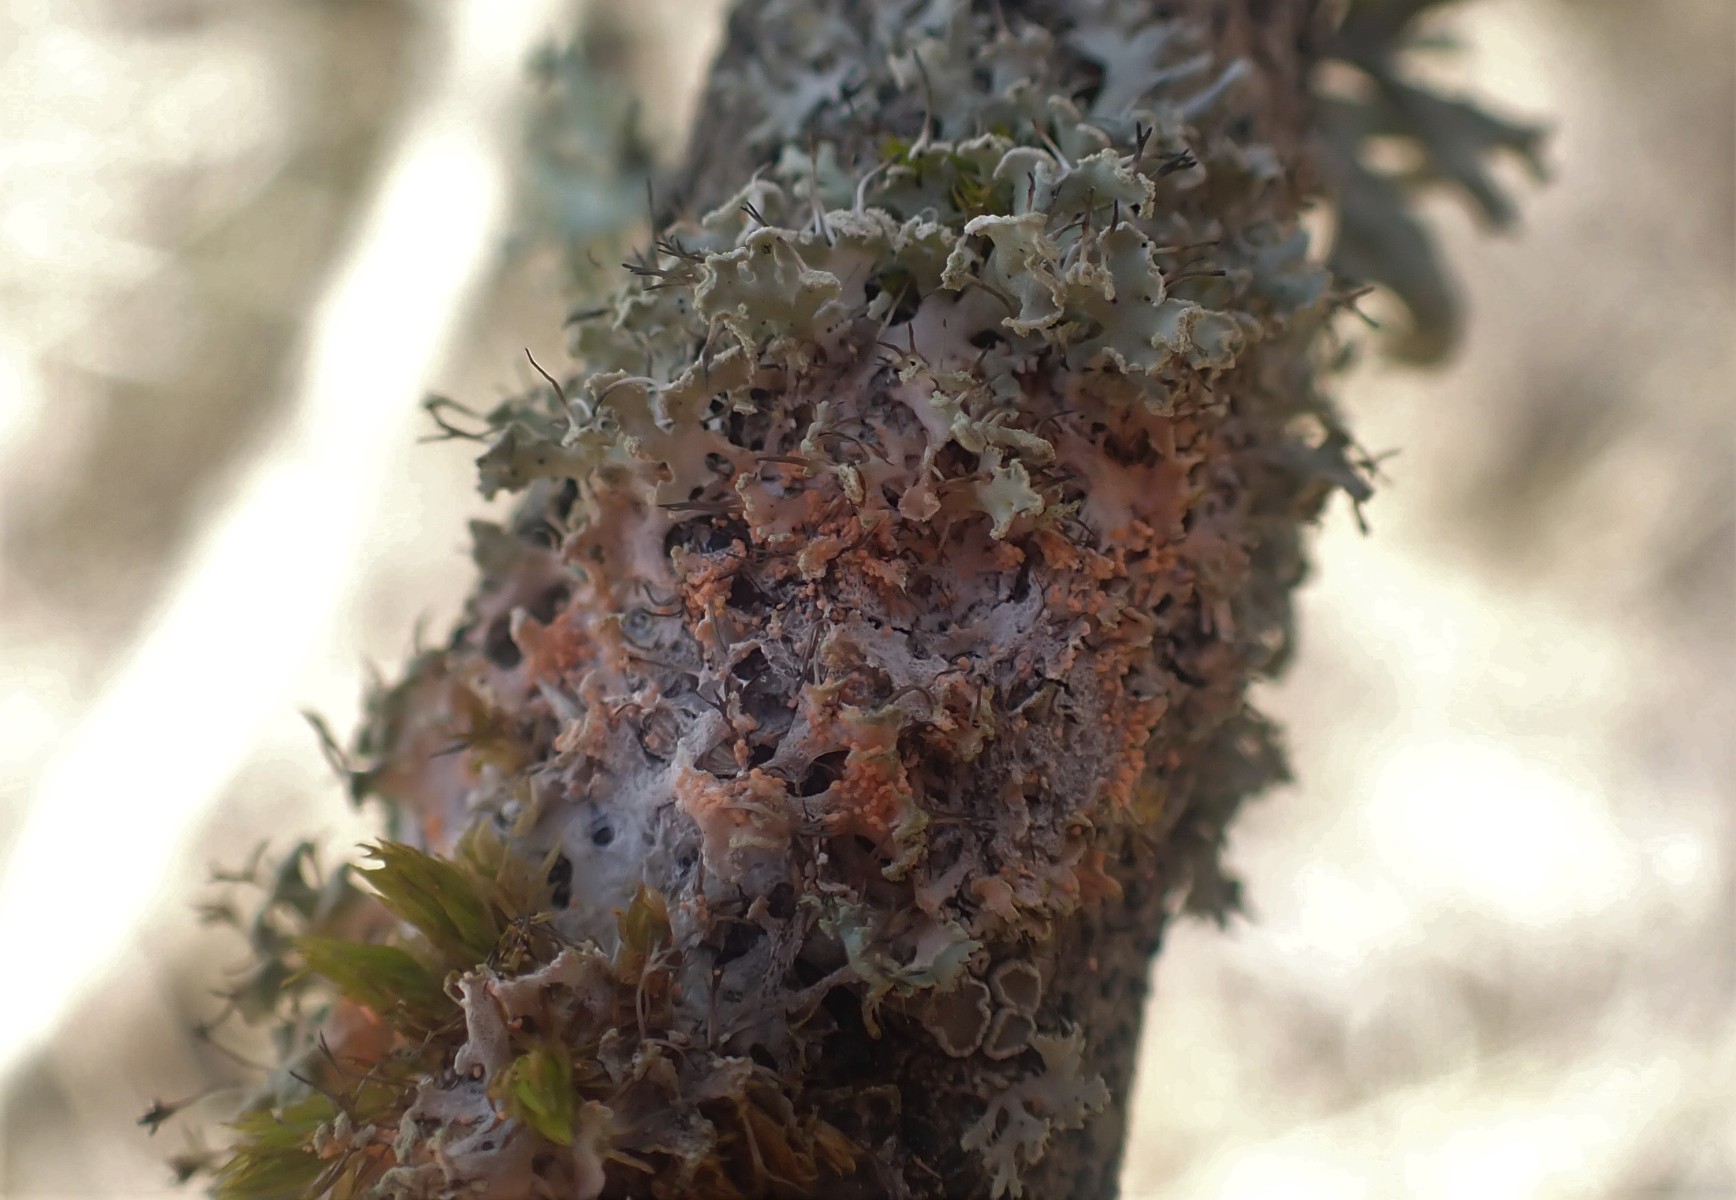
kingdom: Fungi
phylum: Basidiomycota
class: Agaricomycetes
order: Corticiales
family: Corticiaceae
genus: Erythricium
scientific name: Erythricium aurantiacum
